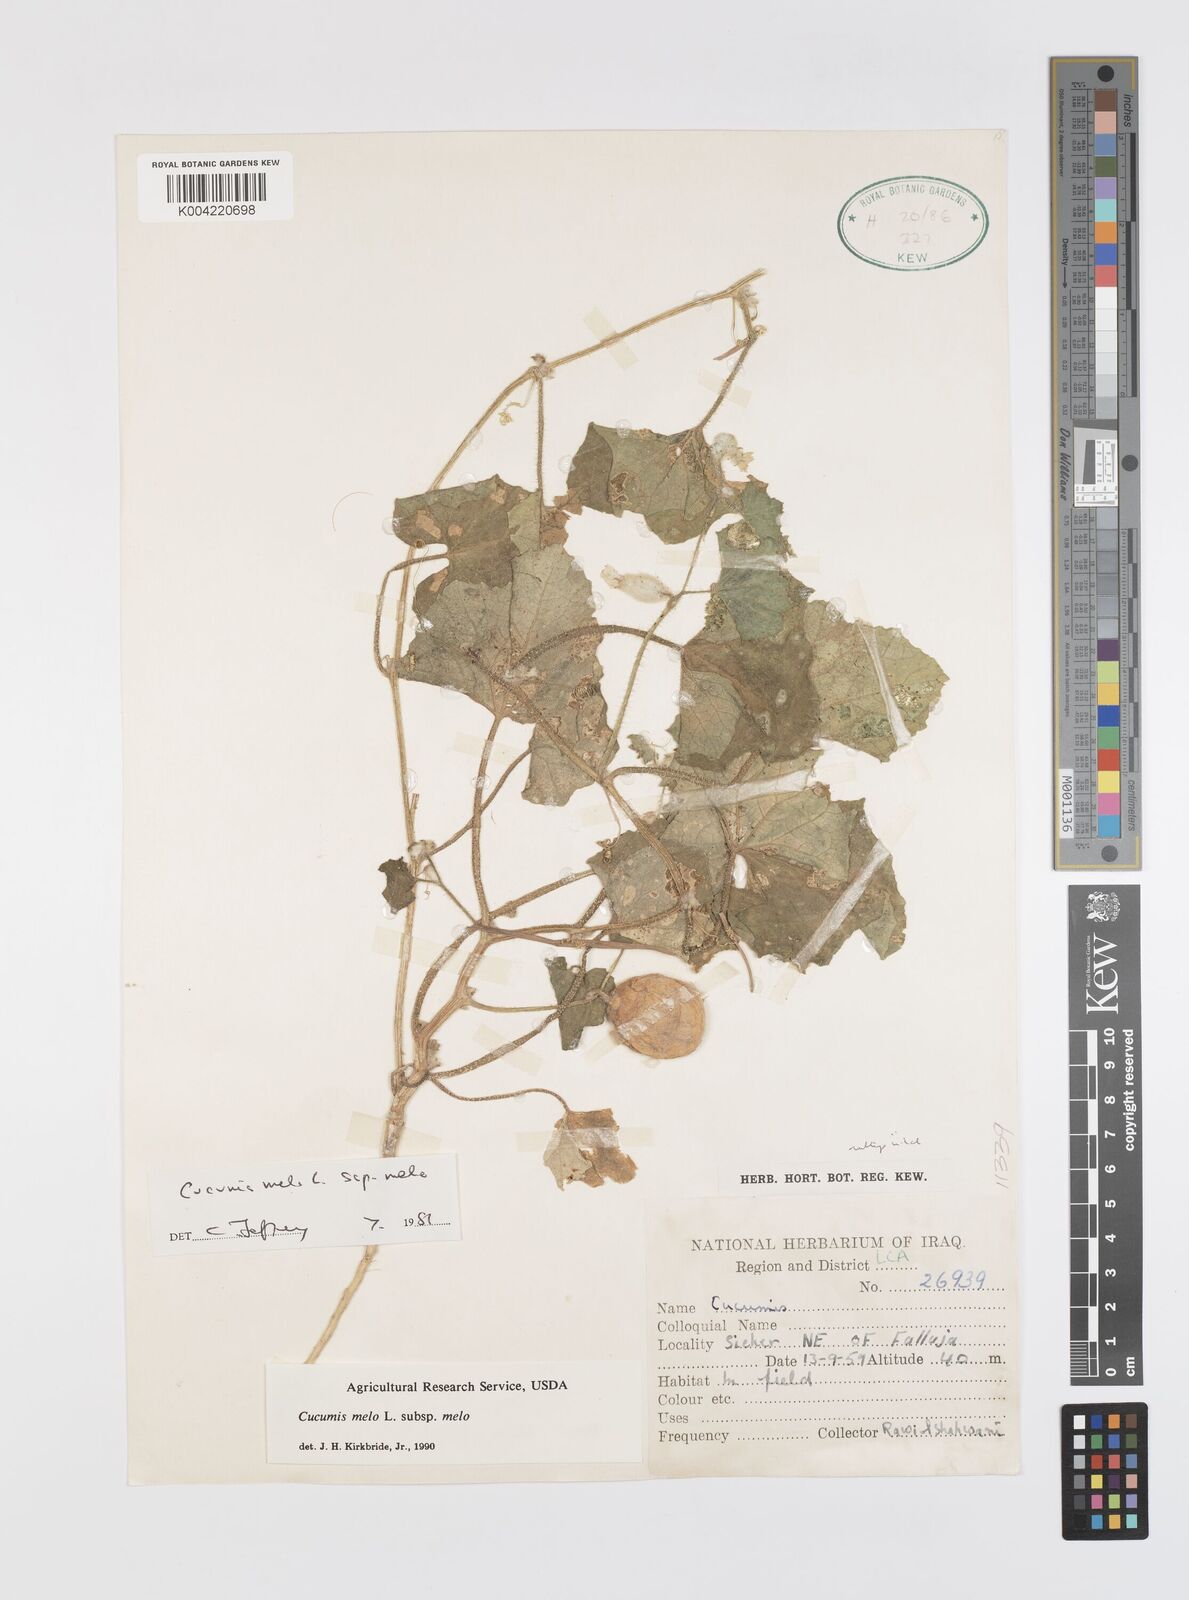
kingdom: Plantae
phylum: Tracheophyta
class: Magnoliopsida
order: Cucurbitales
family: Cucurbitaceae
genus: Cucumis
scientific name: Cucumis melo
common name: Melon
